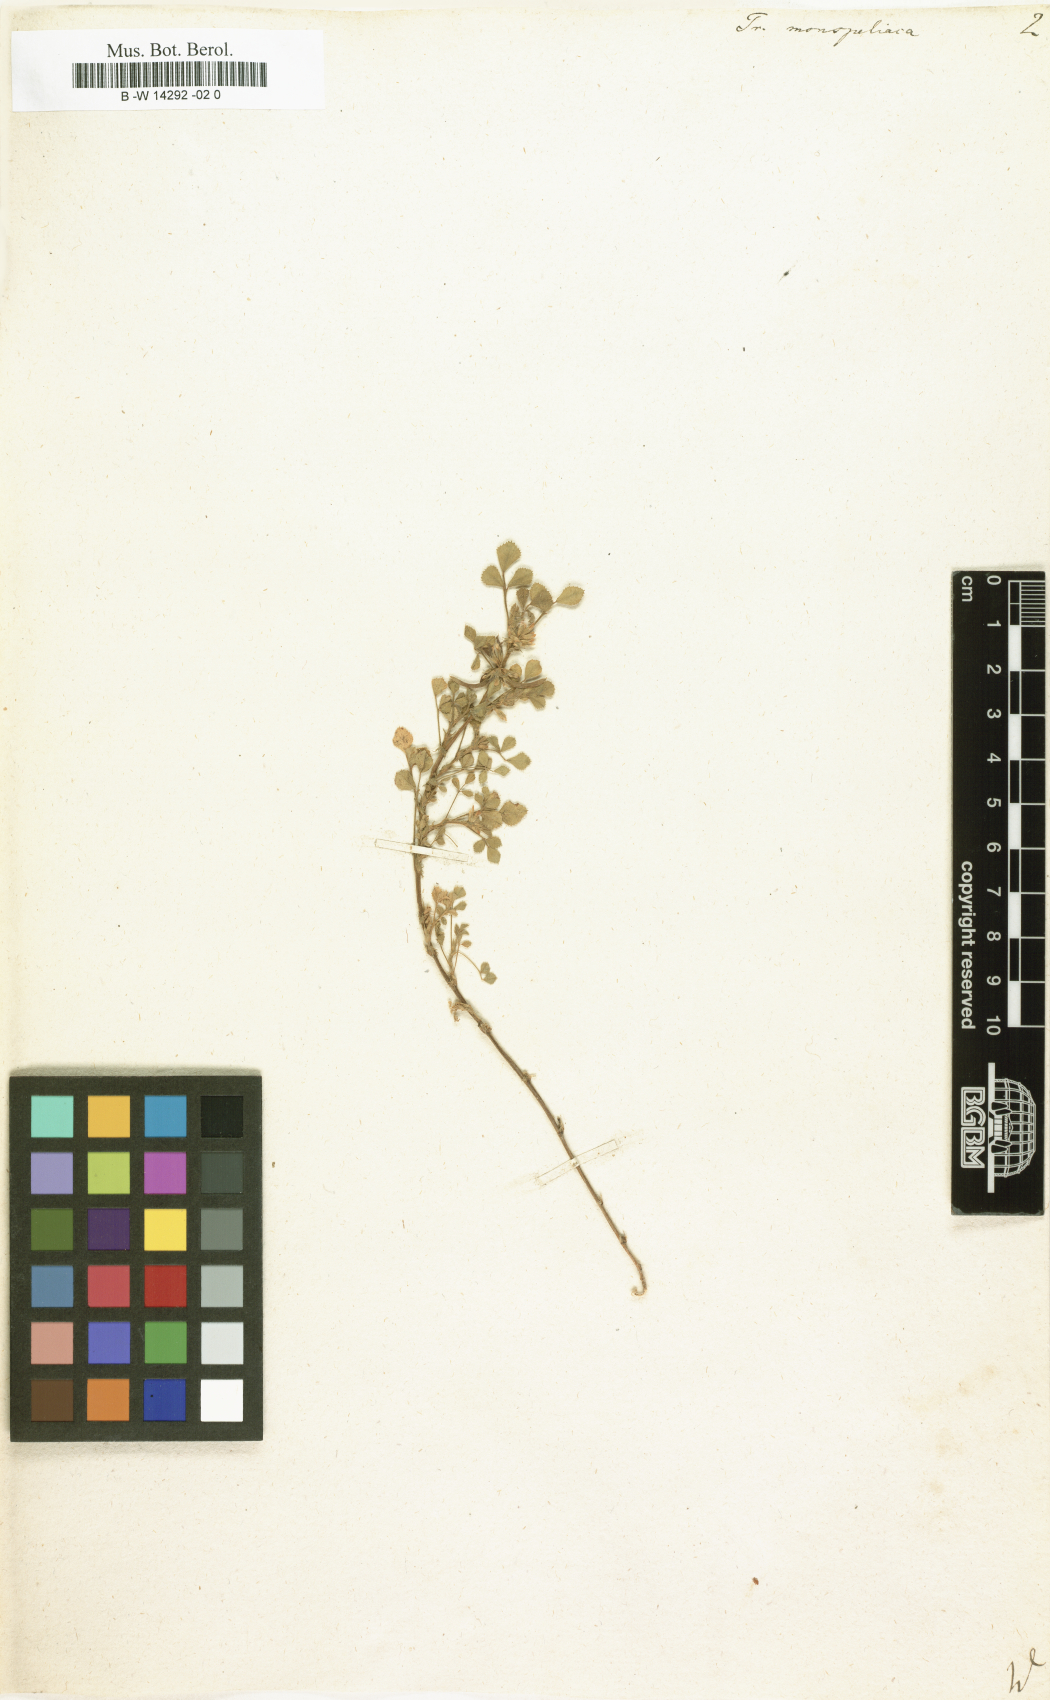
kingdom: Plantae
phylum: Tracheophyta
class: Magnoliopsida
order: Fabales
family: Fabaceae
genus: Medicago
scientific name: Medicago monspeliaca
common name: Hairy medick
